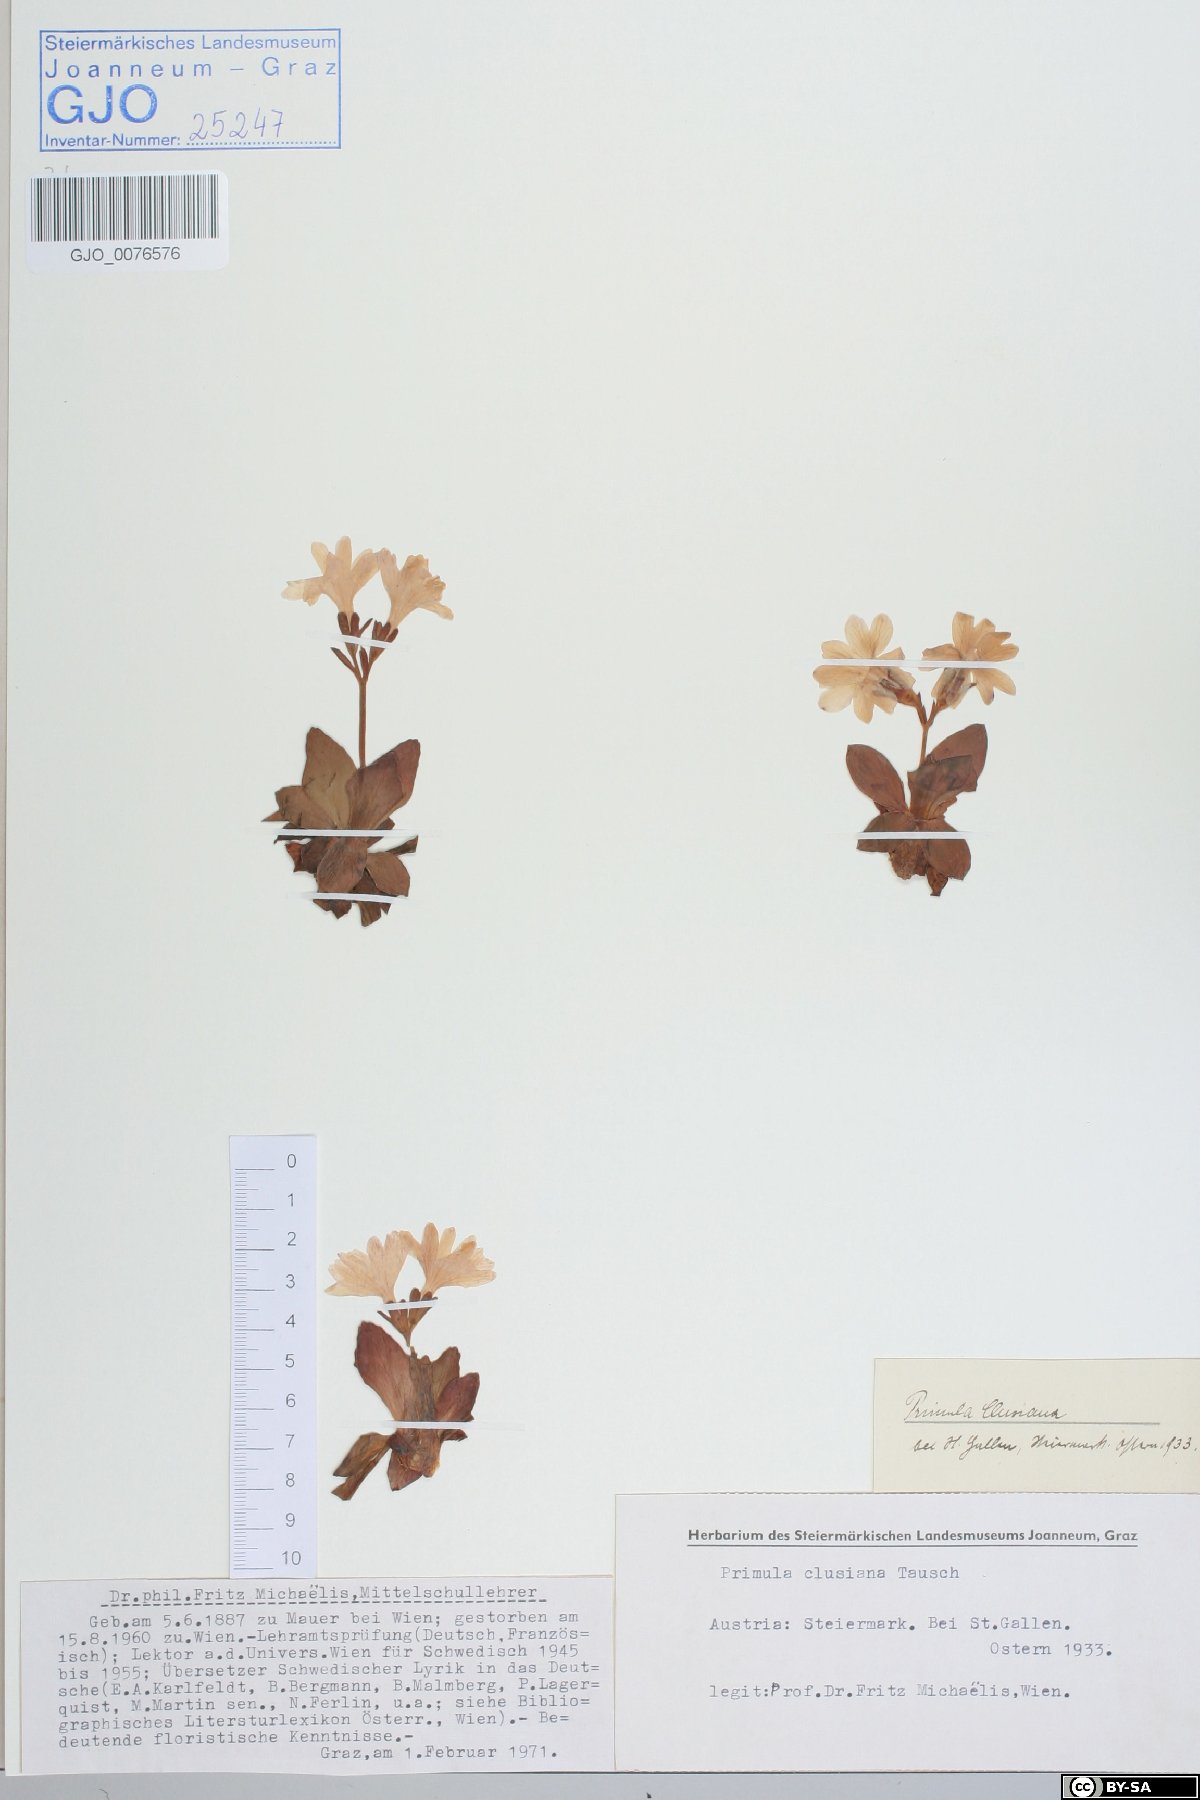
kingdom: Plantae
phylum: Tracheophyta
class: Magnoliopsida
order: Ericales
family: Primulaceae
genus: Primula
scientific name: Primula clusiana
